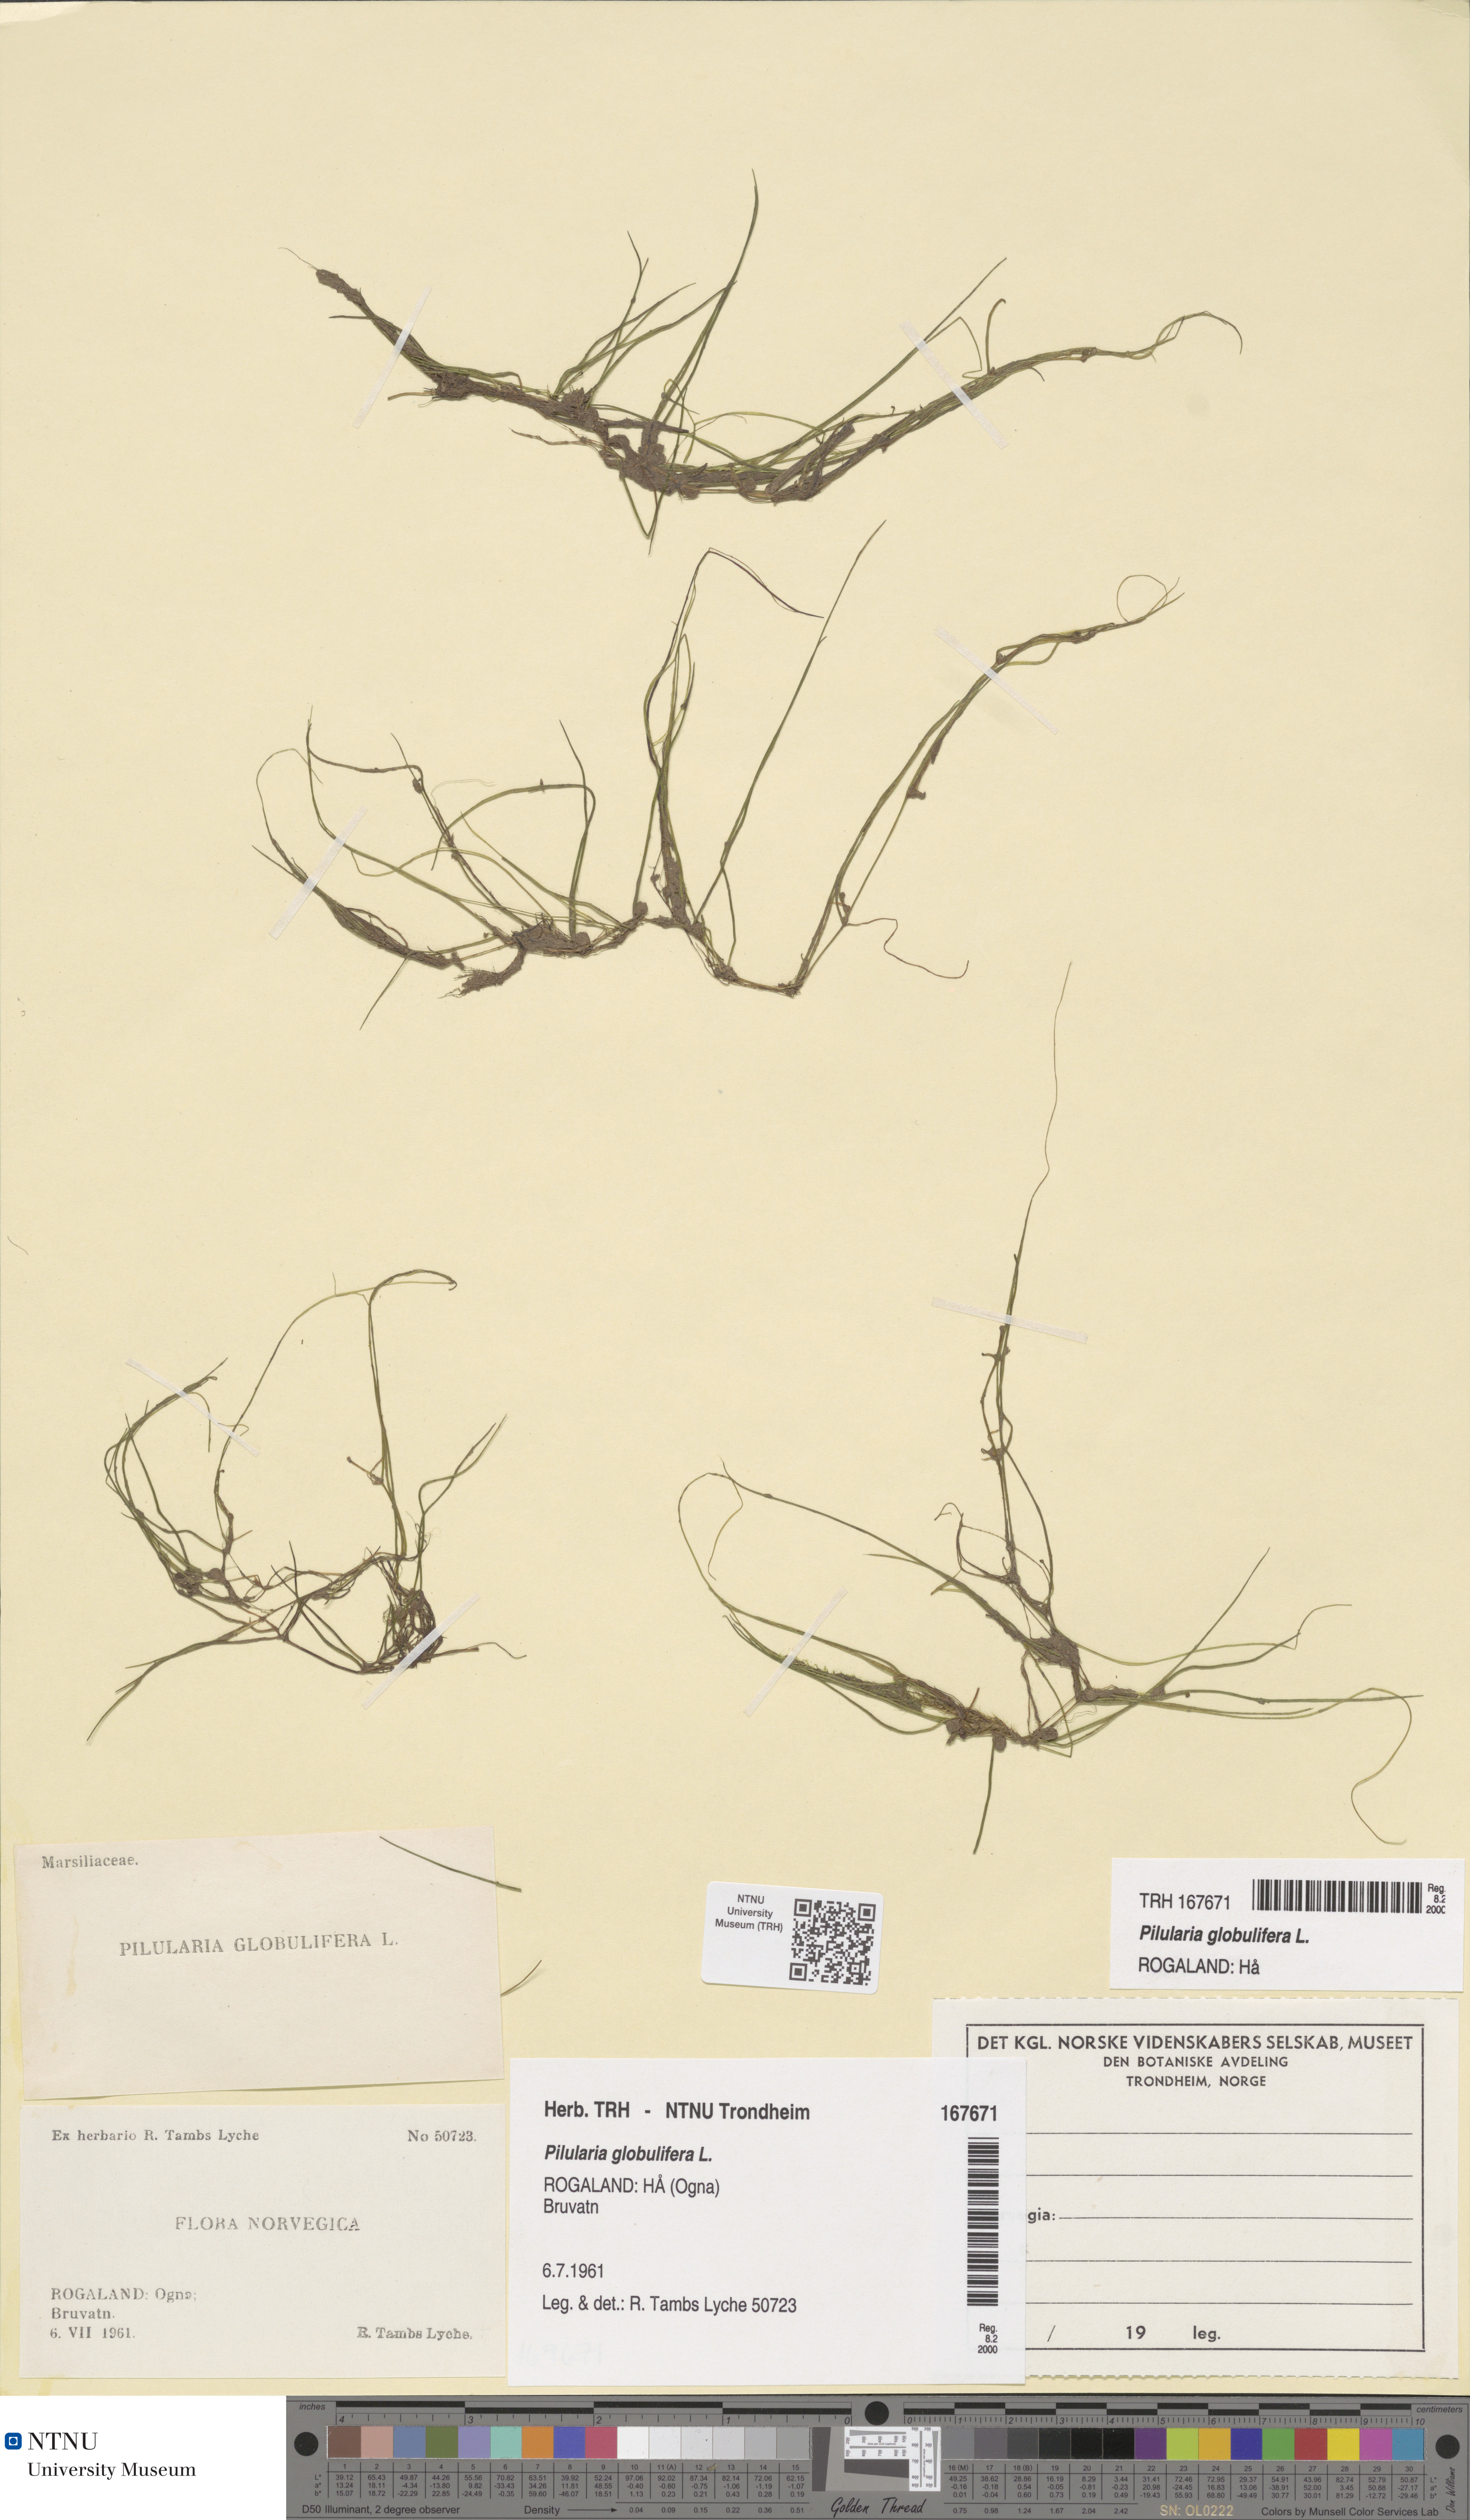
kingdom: Plantae
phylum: Tracheophyta
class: Polypodiopsida
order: Salviniales
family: Marsileaceae
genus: Pilularia
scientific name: Pilularia globulifera
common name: Pillwort
